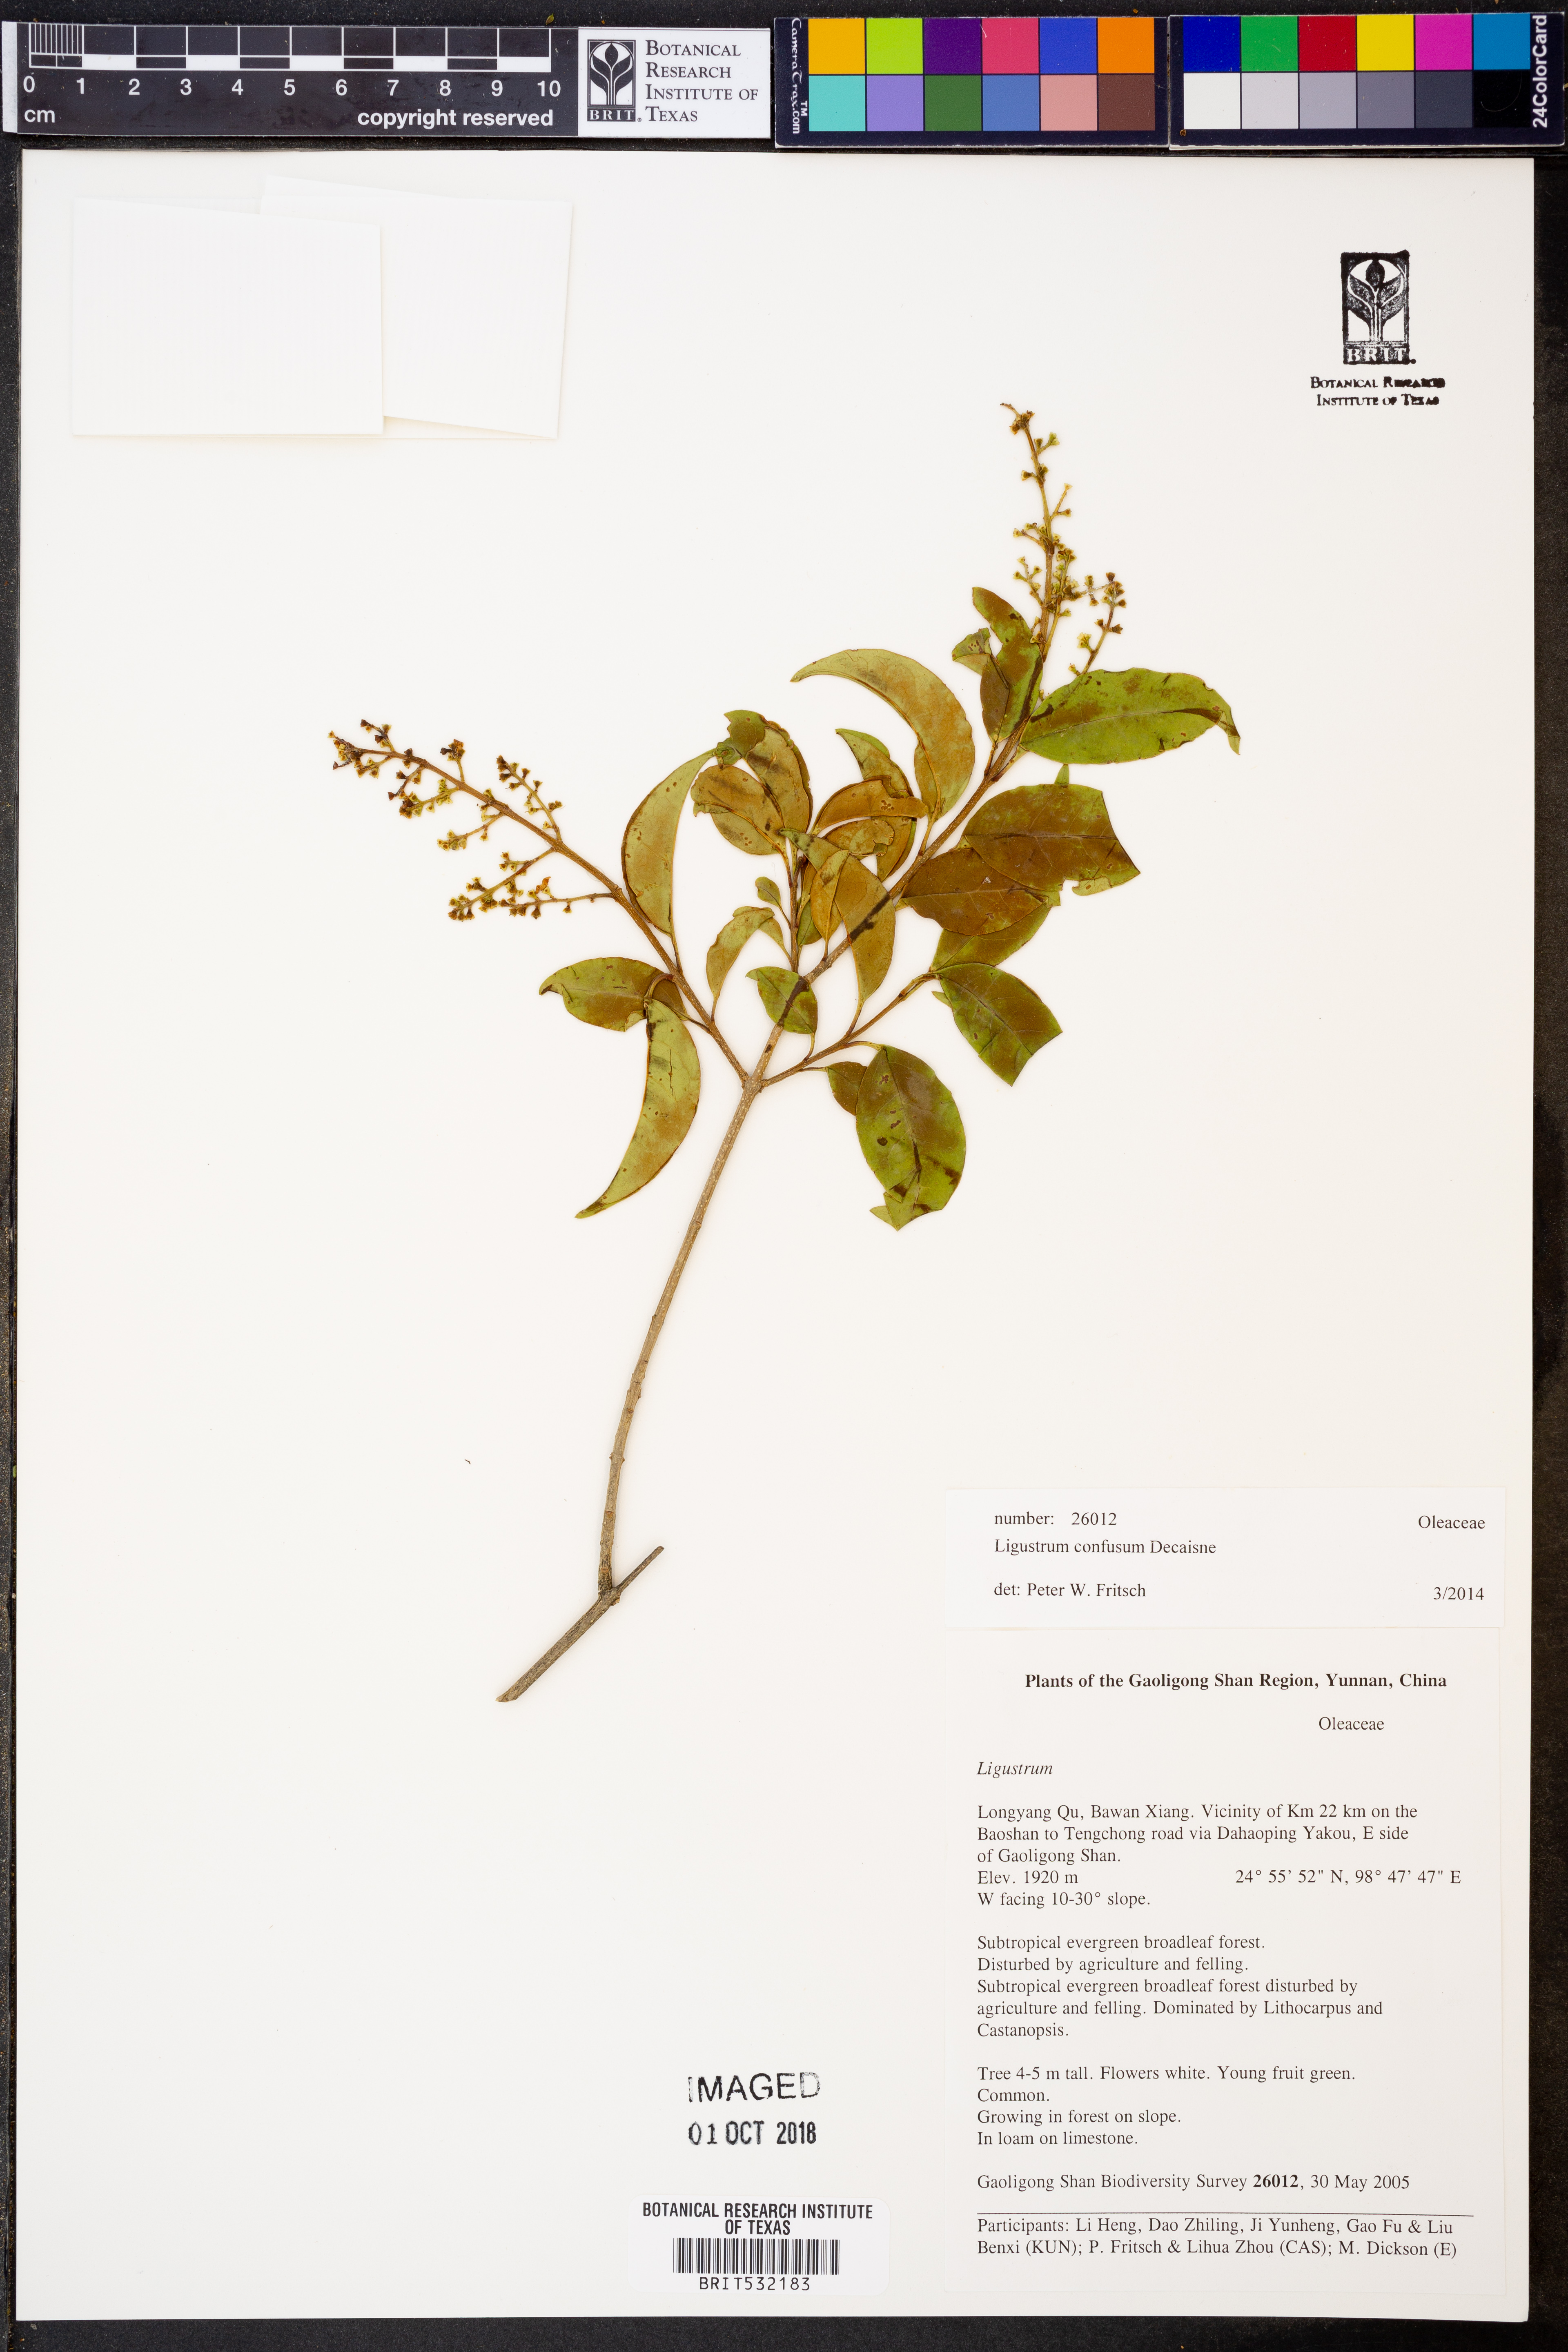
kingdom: Plantae
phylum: Tracheophyta
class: Magnoliopsida
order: Lamiales
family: Oleaceae
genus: Ligustrum
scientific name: Ligustrum confusum
